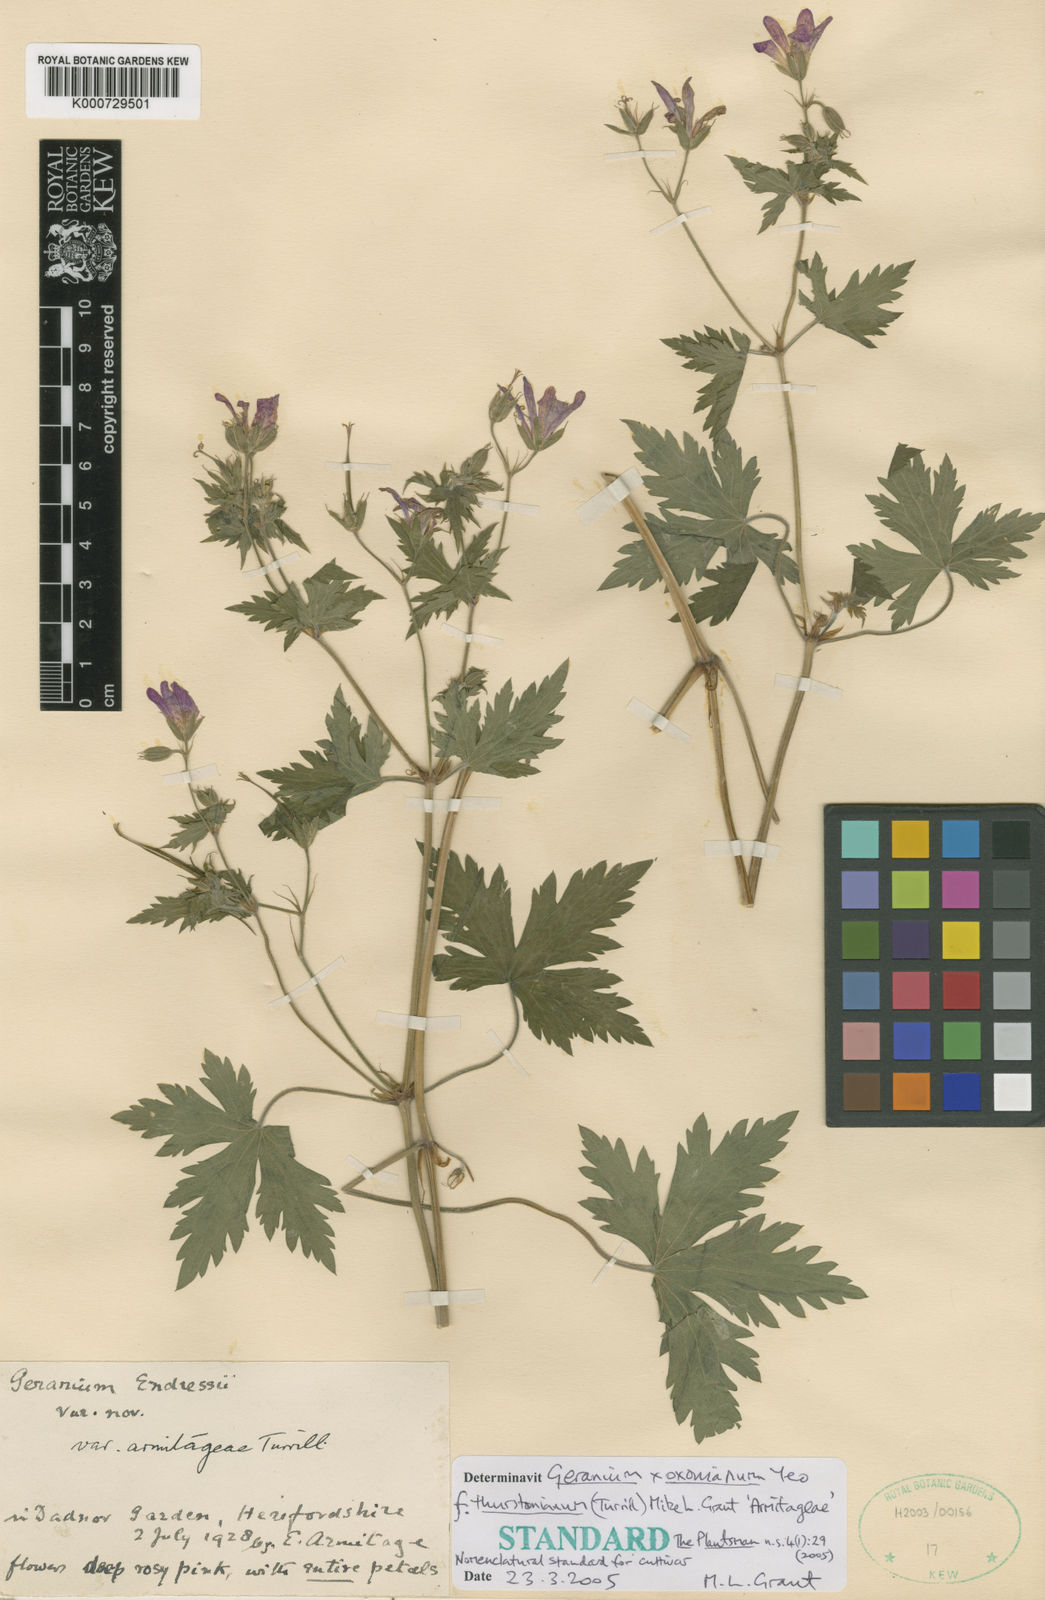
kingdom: Plantae
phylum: Tracheophyta
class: Magnoliopsida
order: Geraniales
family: Geraniaceae
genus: Geranium
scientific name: Geranium
